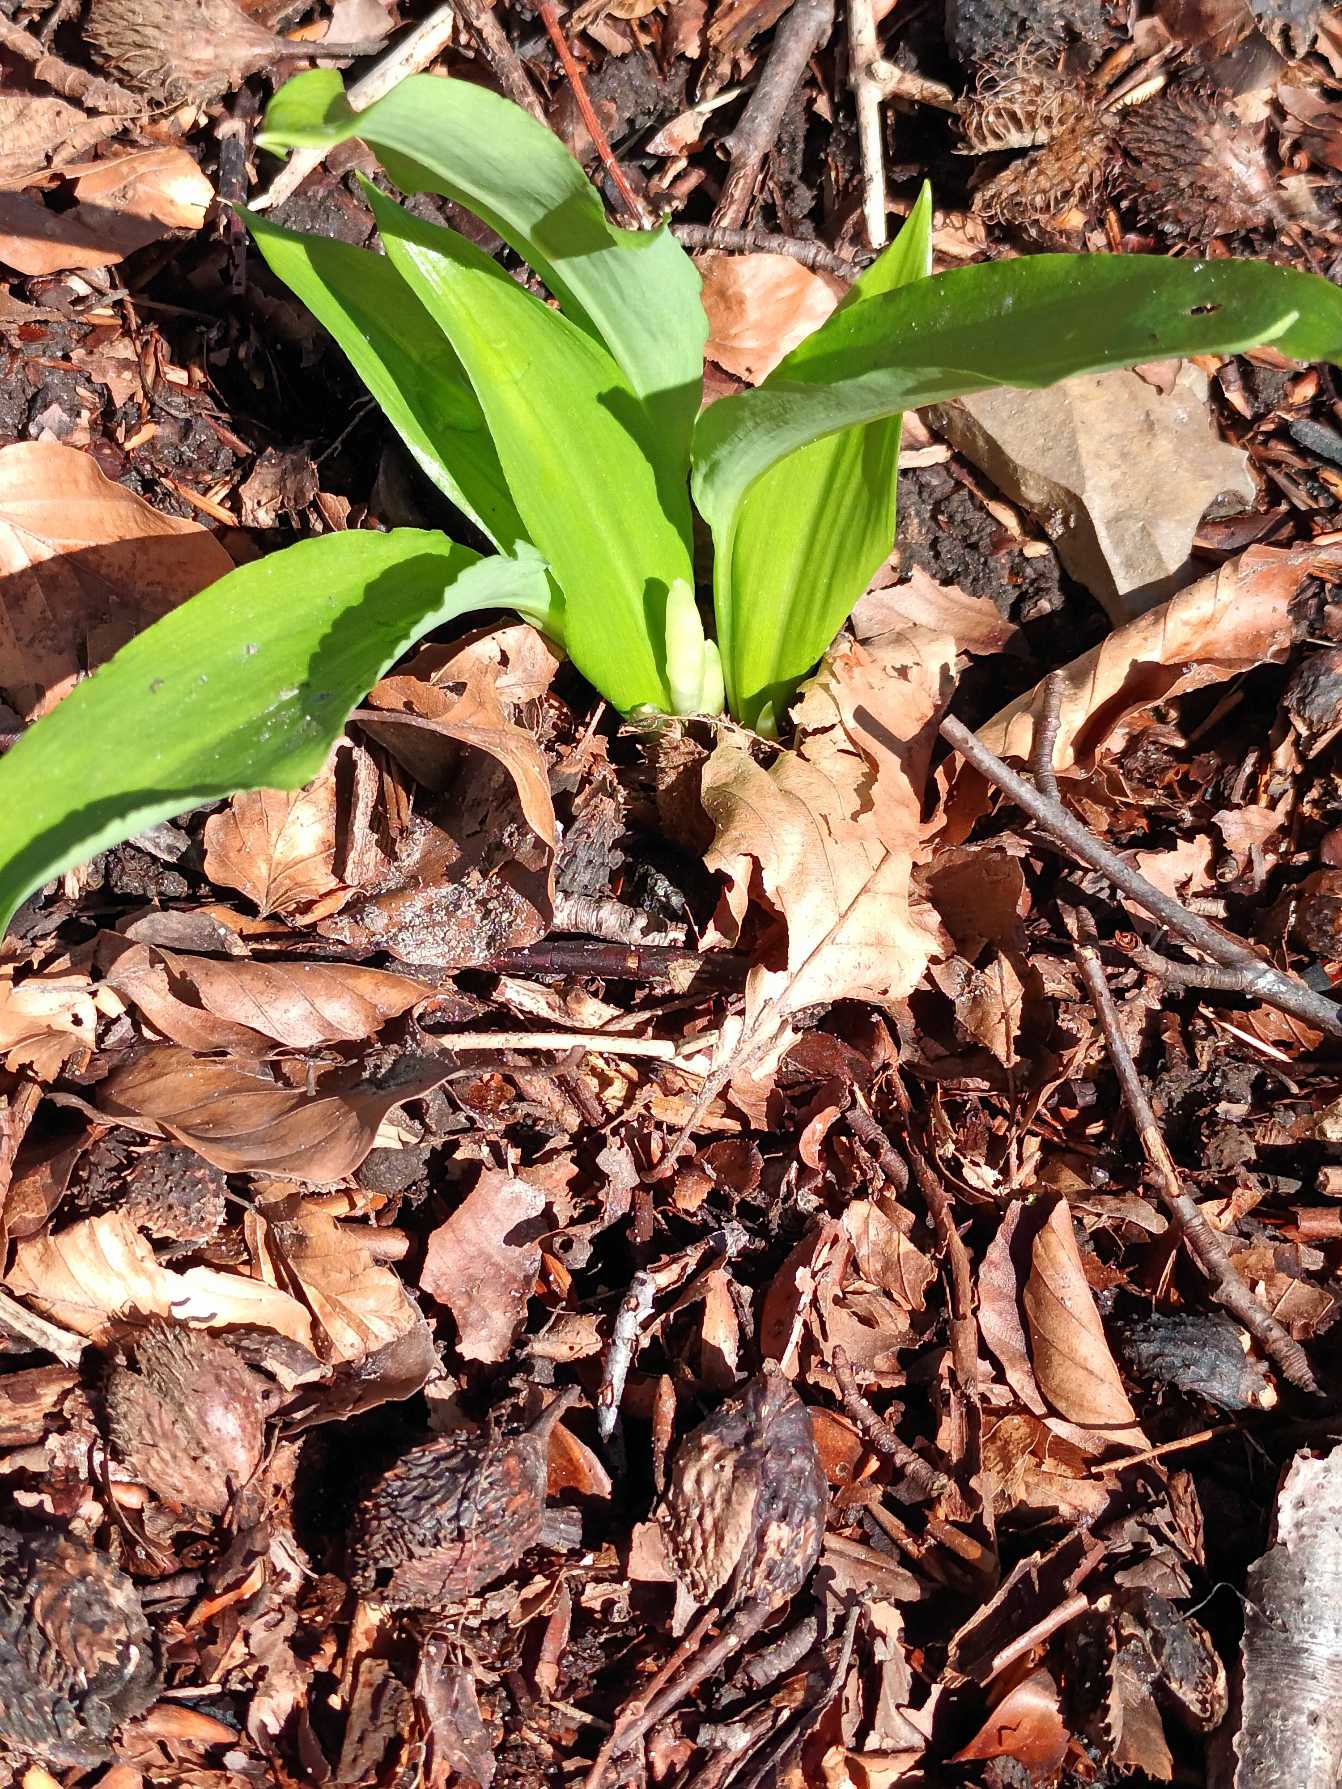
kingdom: Plantae
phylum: Tracheophyta
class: Liliopsida
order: Asparagales
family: Amaryllidaceae
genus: Allium
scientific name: Allium ursinum
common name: Rams-løg
